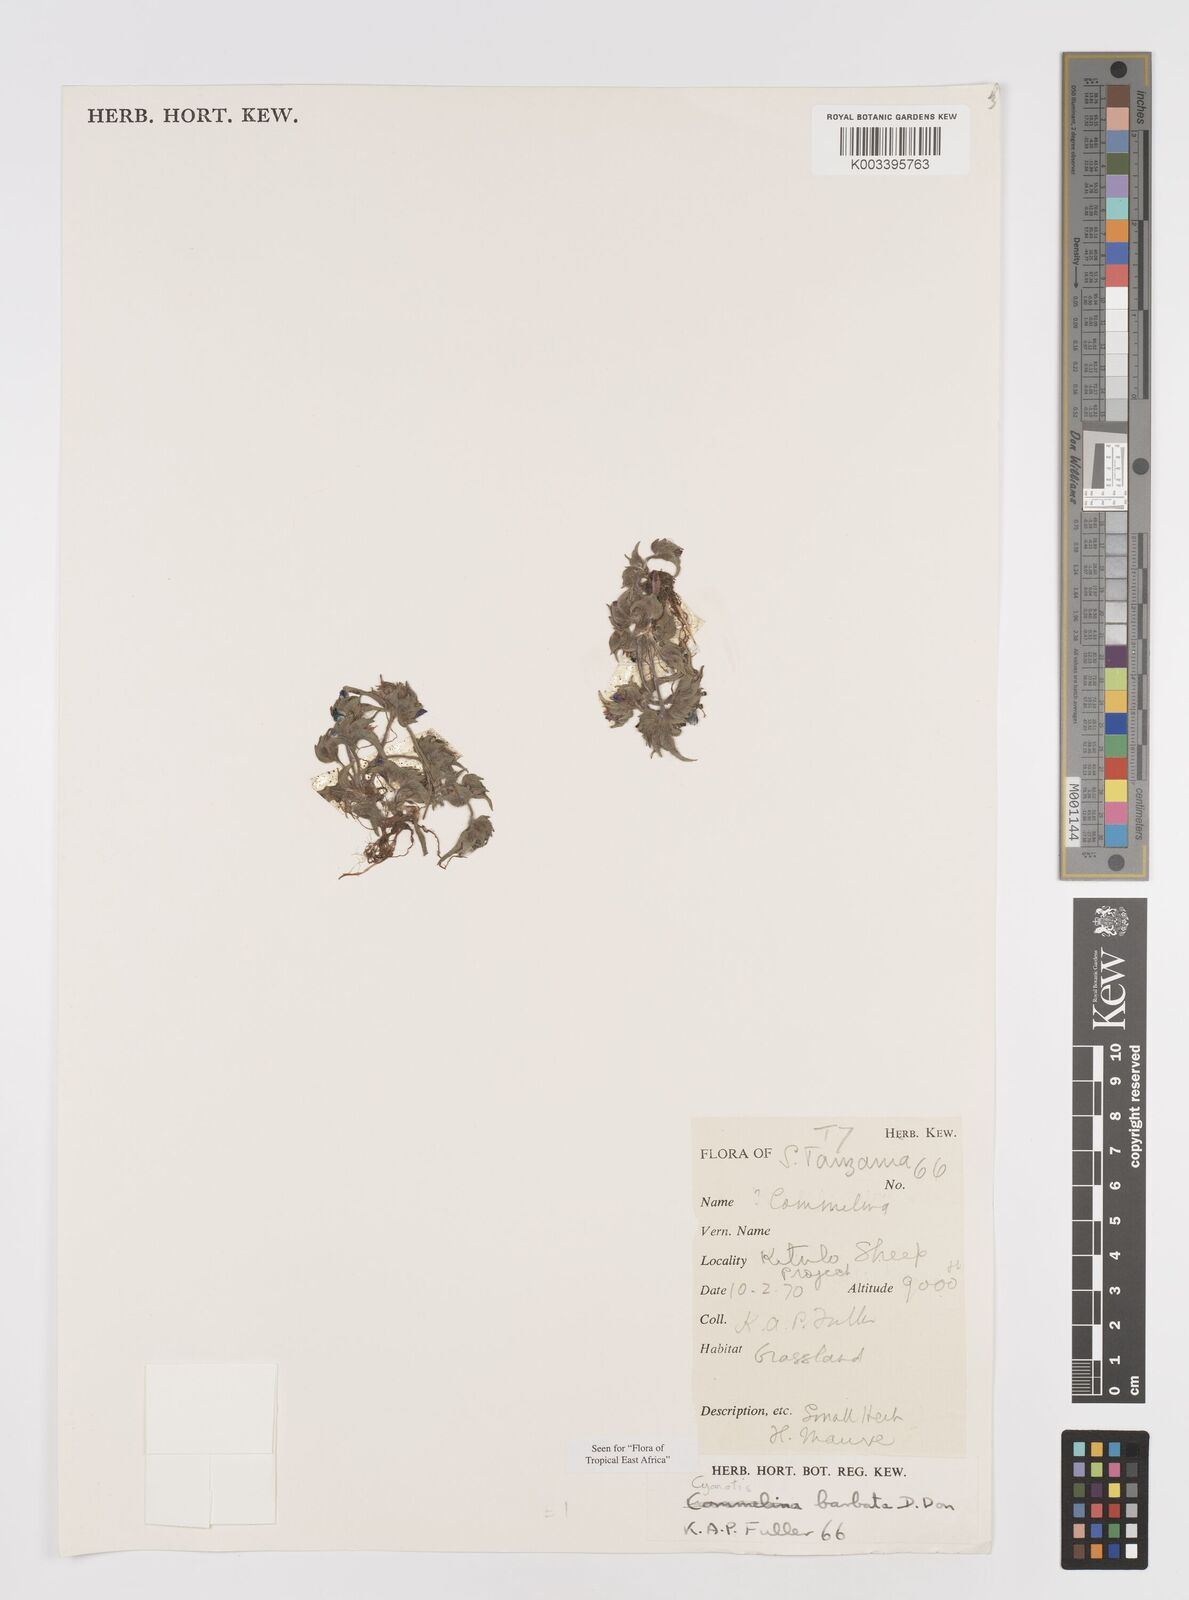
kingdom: Plantae
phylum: Tracheophyta
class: Liliopsida
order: Commelinales
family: Commelinaceae
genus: Cyanotis
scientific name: Cyanotis vaga
